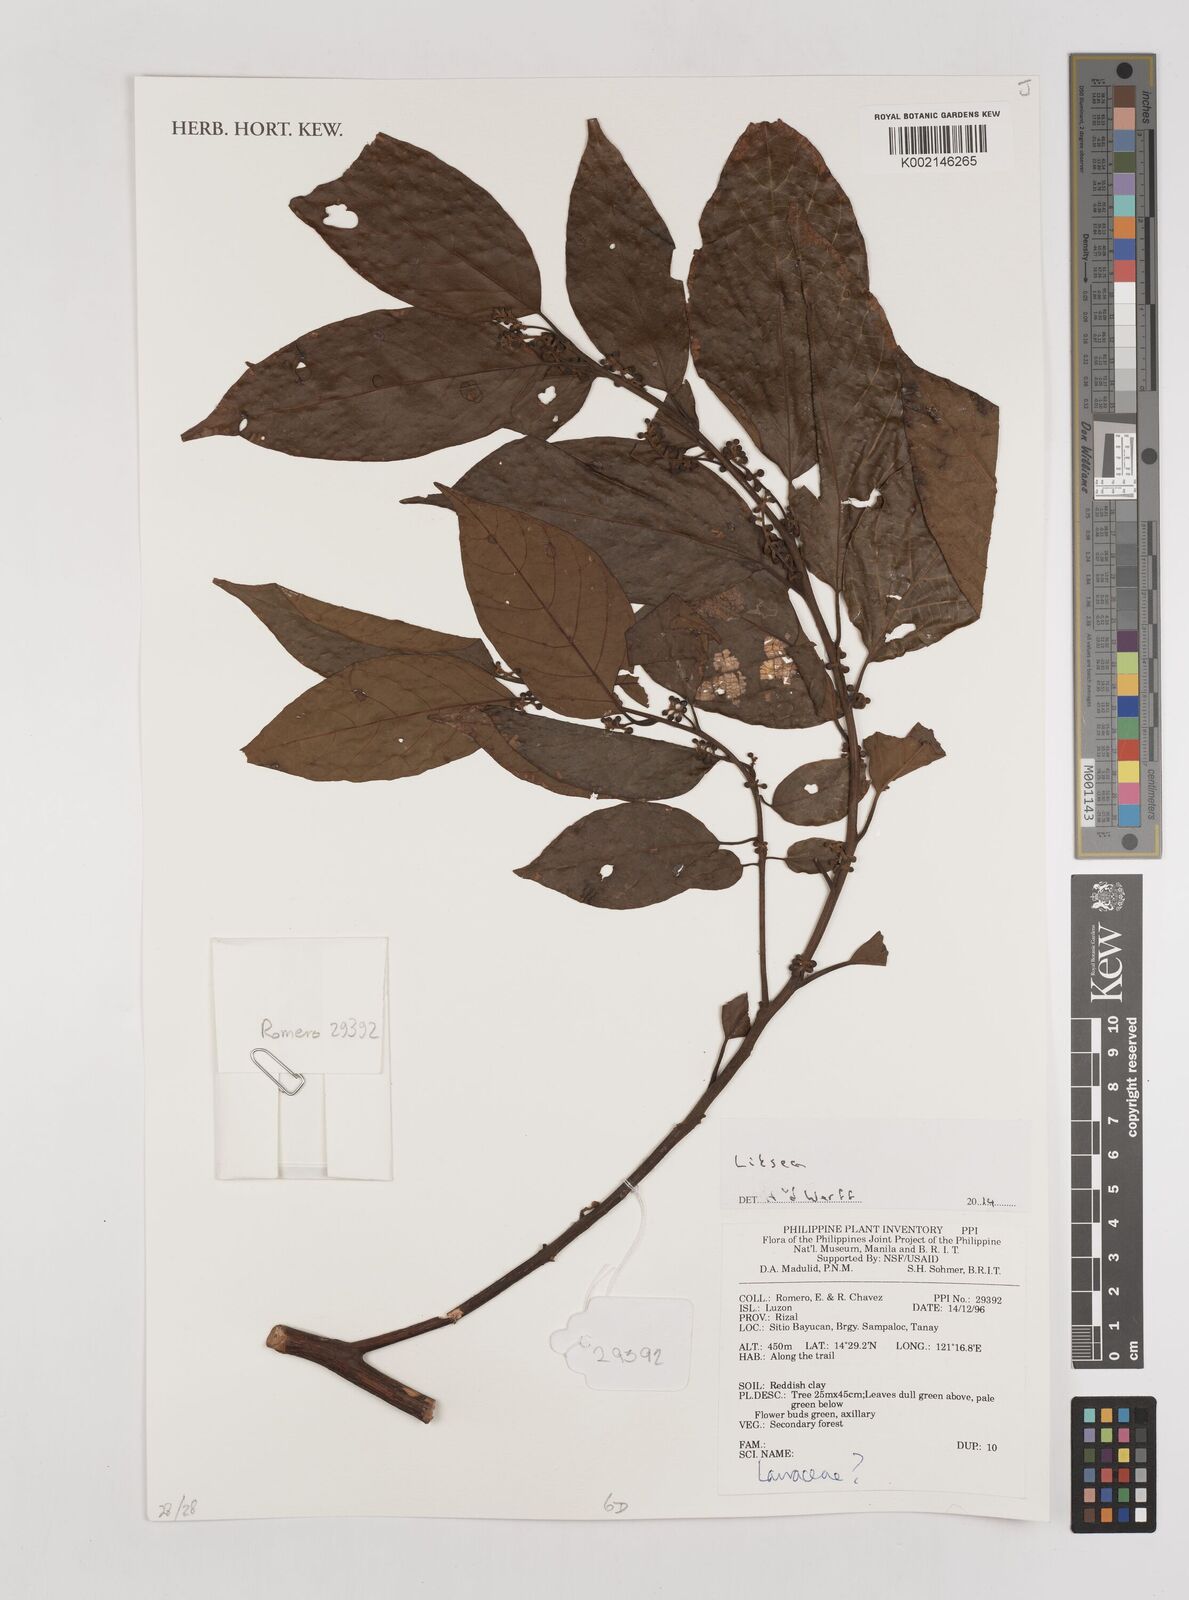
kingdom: Plantae
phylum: Tracheophyta
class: Magnoliopsida
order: Laurales
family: Lauraceae
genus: Litsea
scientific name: Litsea
